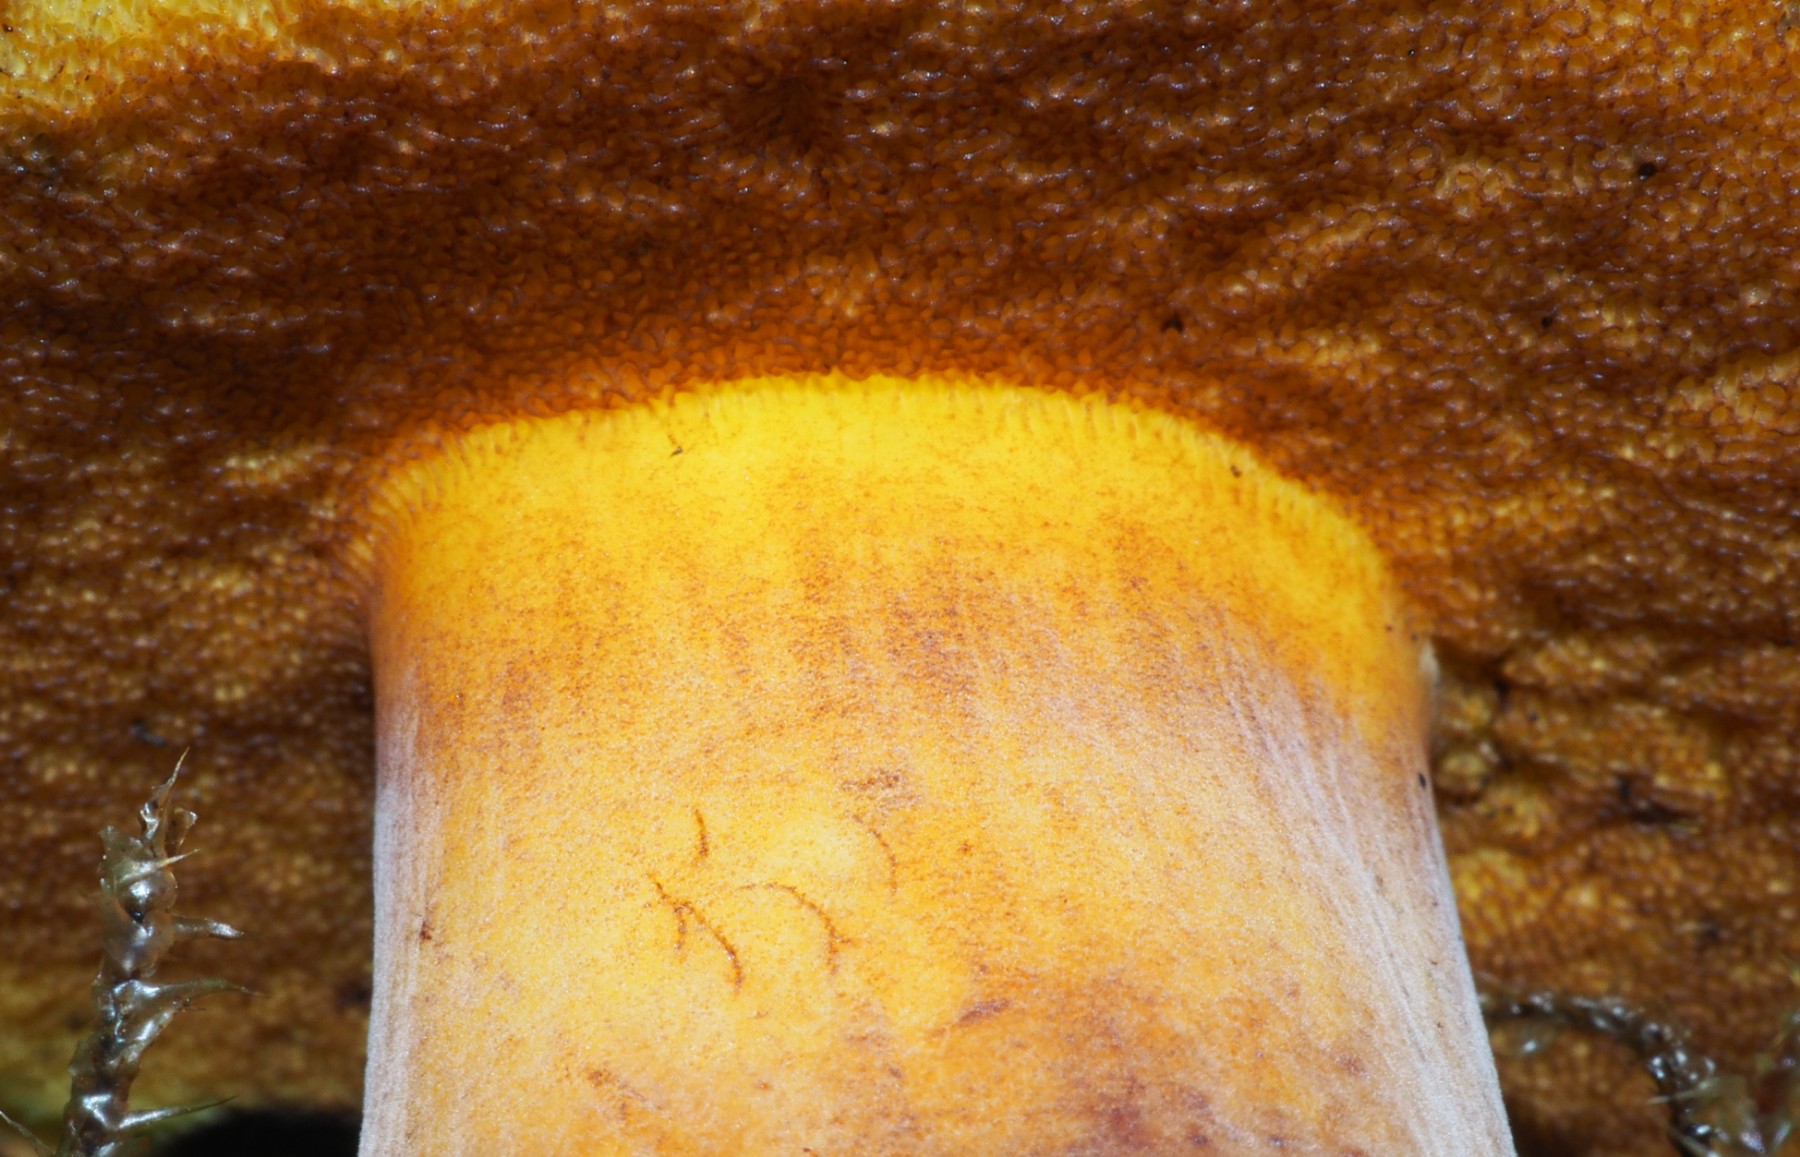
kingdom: Fungi
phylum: Basidiomycota
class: Agaricomycetes
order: Boletales
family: Boletaceae
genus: Cyanoboletus
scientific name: Cyanoboletus pulverulentus
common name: sortblånende rørhat
